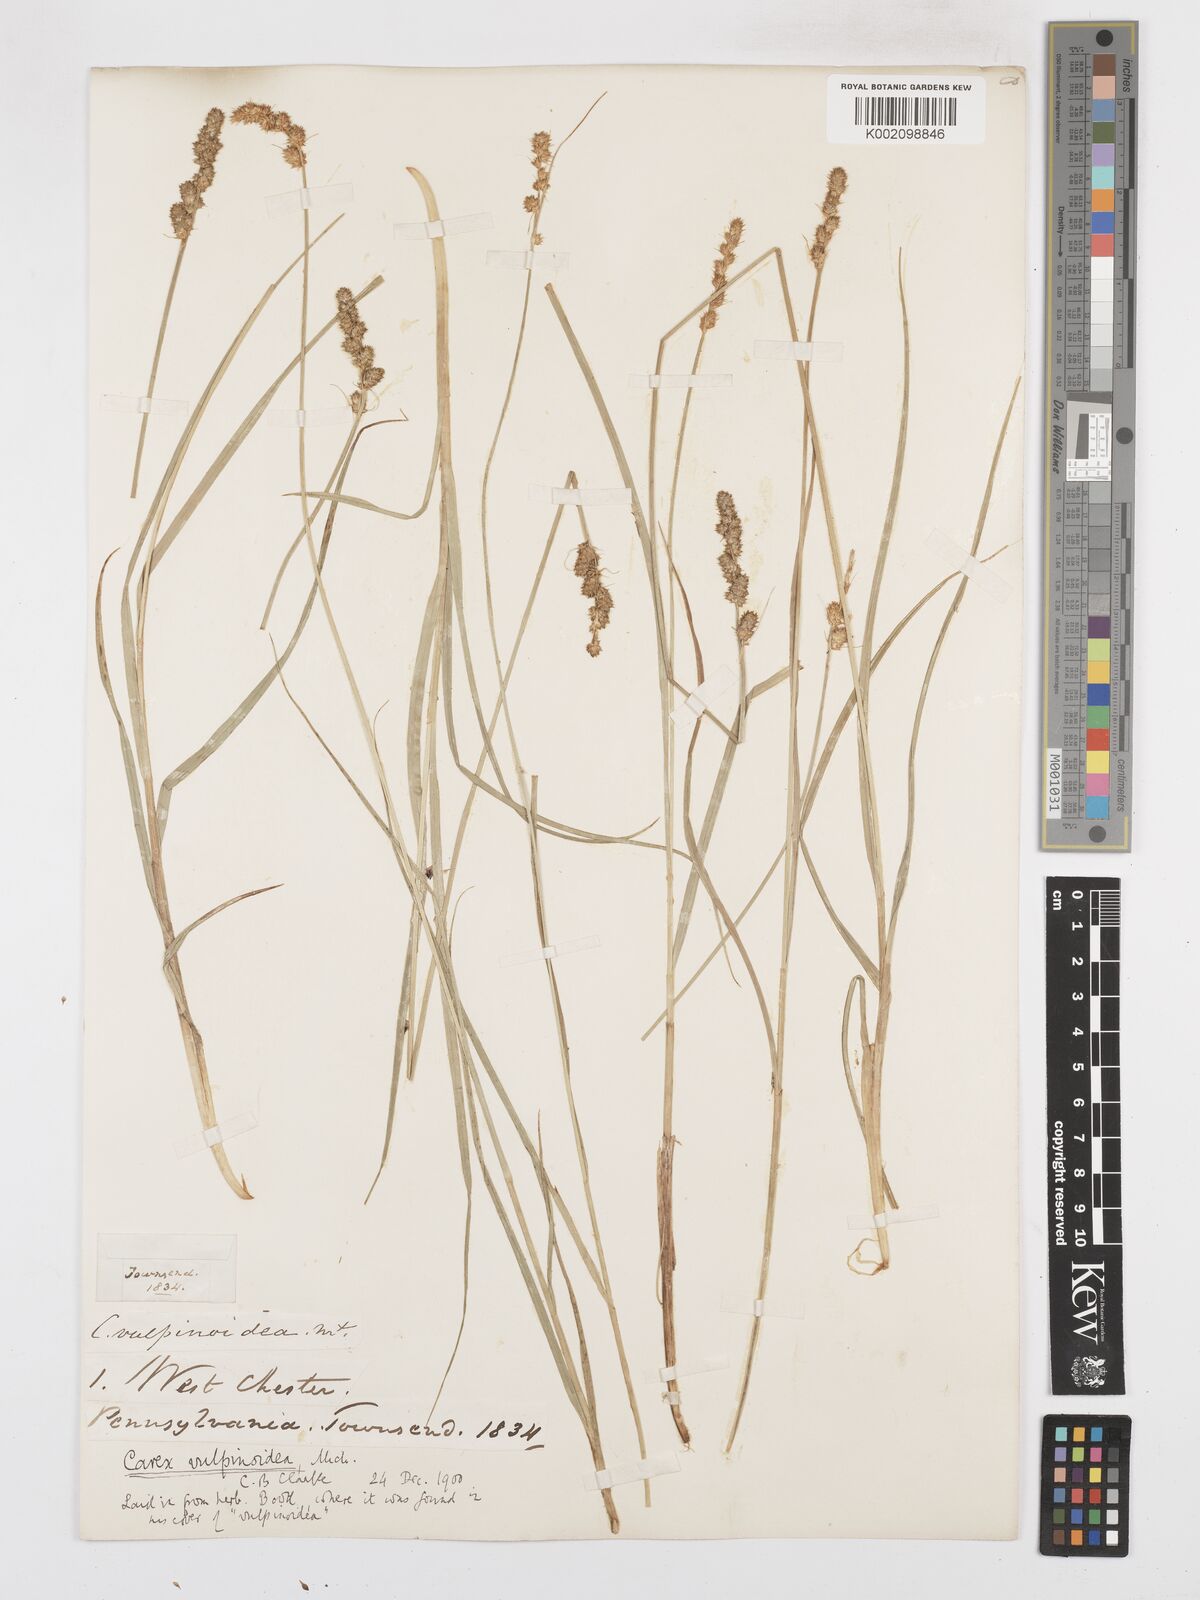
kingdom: Plantae
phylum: Tracheophyta
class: Liliopsida
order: Poales
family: Cyperaceae
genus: Carex
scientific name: Carex annectens
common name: Large fox sedge
